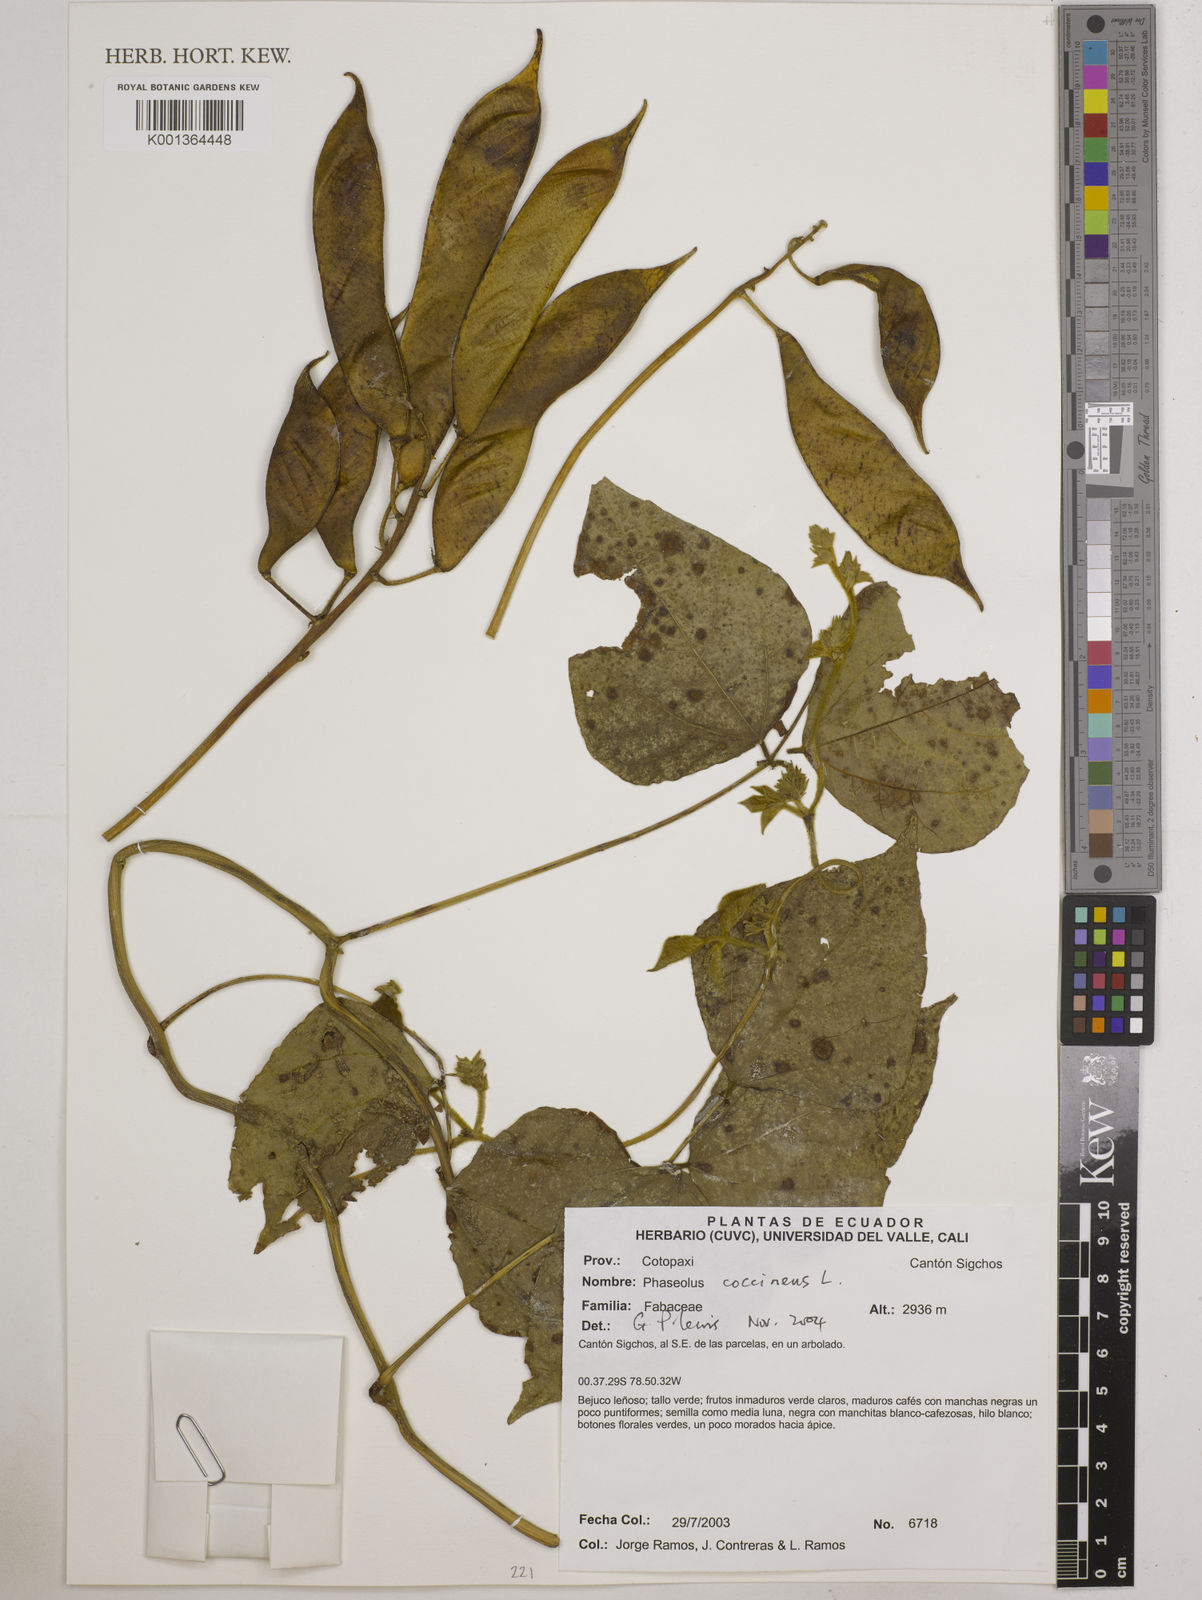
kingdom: Plantae
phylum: Tracheophyta
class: Magnoliopsida
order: Fabales
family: Fabaceae
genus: Phaseolus
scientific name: Phaseolus coccineus
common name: Runner bean
